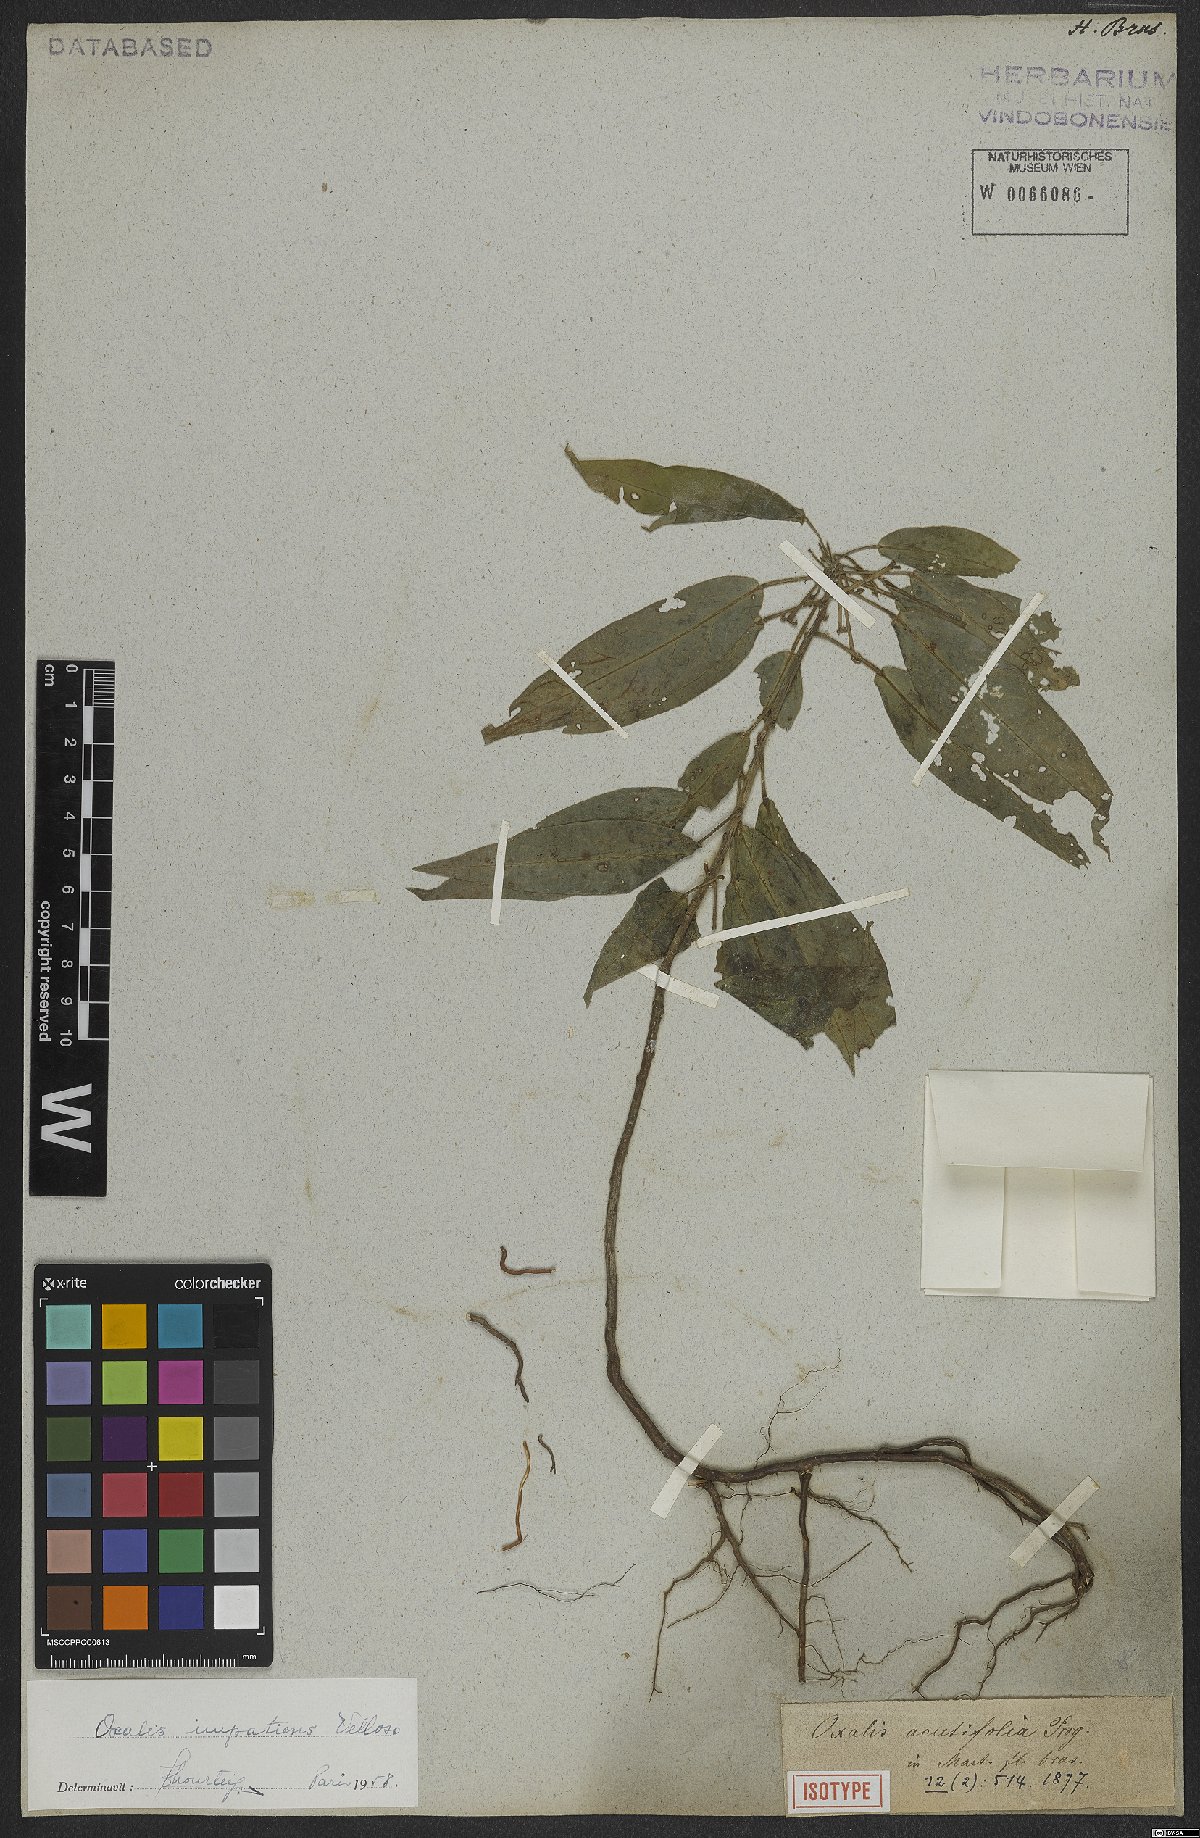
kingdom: Plantae
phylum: Tracheophyta
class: Magnoliopsida
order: Oxalidales
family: Oxalidaceae
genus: Oxalis
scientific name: Oxalis impatiens
